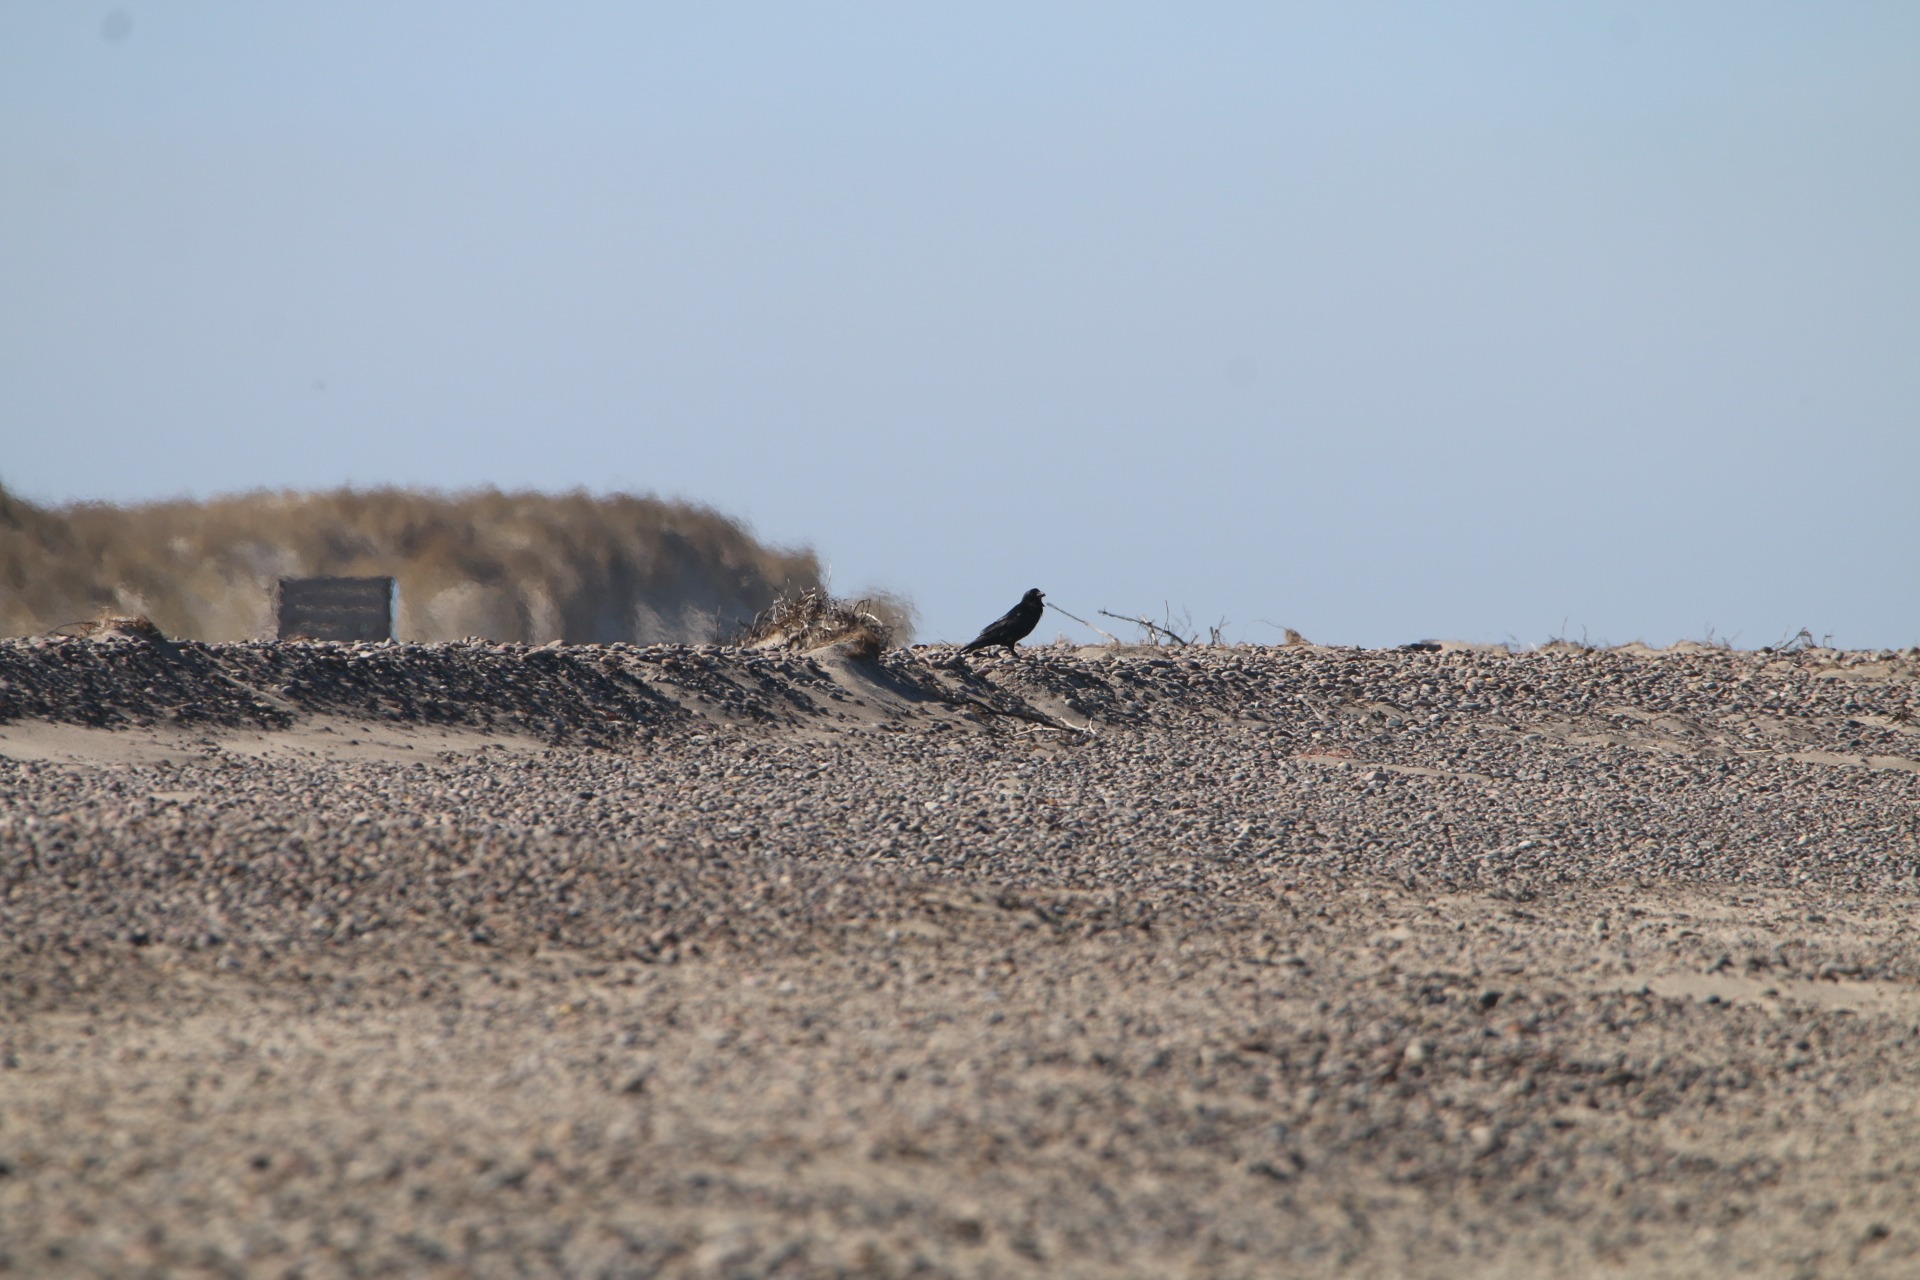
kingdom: Animalia
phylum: Chordata
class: Aves
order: Passeriformes
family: Corvidae
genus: Corvus
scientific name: Corvus corax
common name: Ravn
